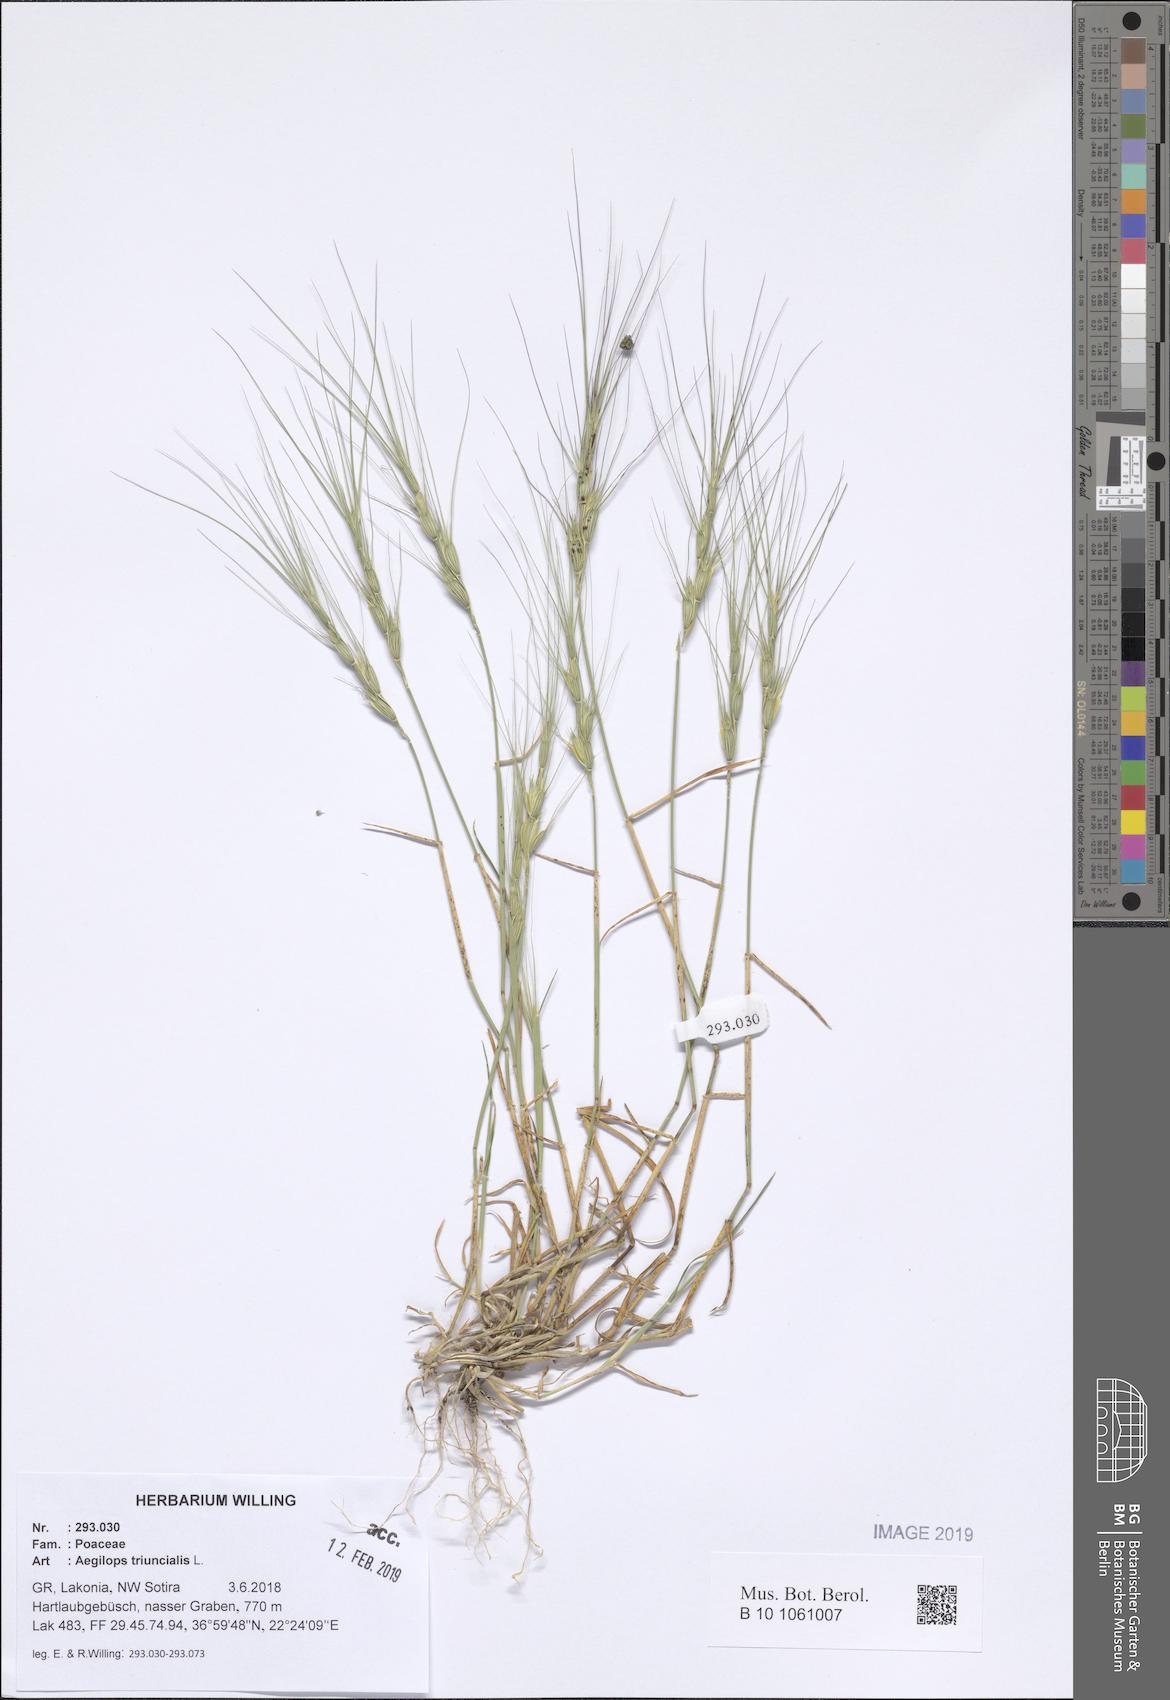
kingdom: Plantae
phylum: Tracheophyta
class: Liliopsida
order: Poales
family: Poaceae
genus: Aegilops
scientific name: Aegilops triuncialis
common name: Barb goat grass
